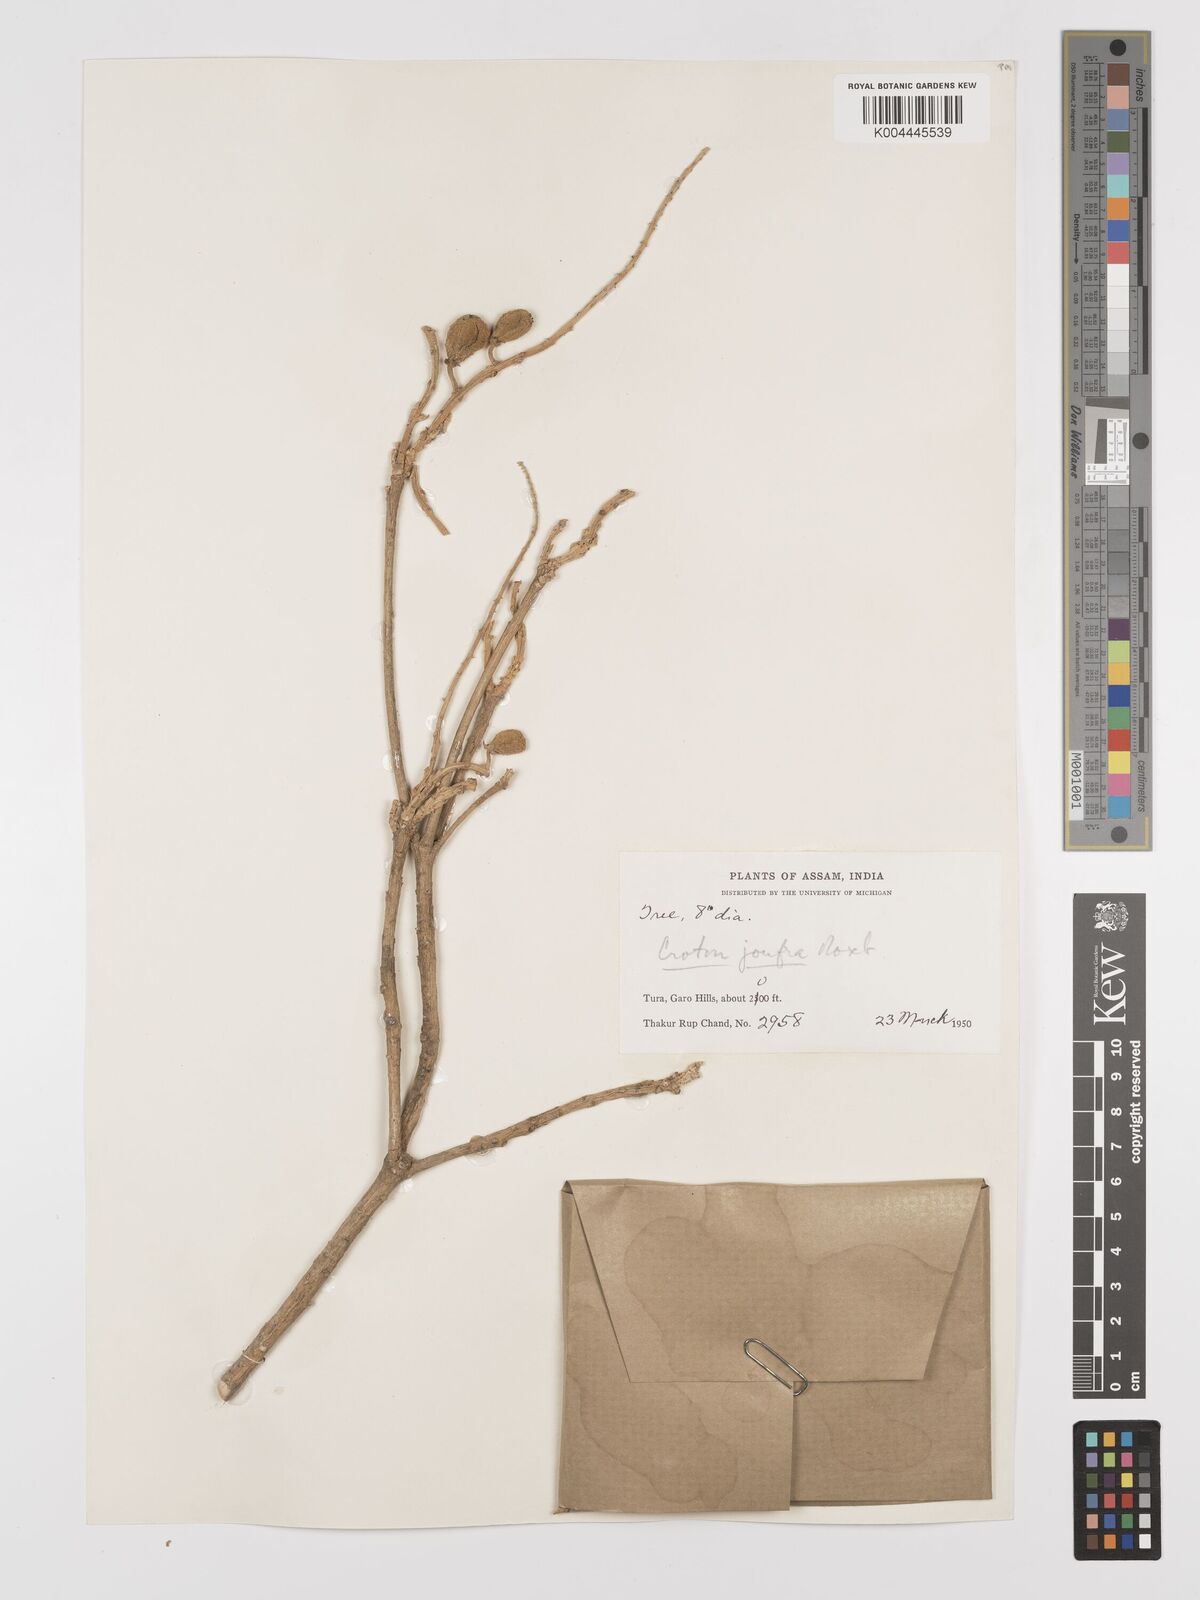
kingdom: Plantae
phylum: Tracheophyta
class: Magnoliopsida
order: Malpighiales
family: Euphorbiaceae
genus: Croton
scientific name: Croton joufra
